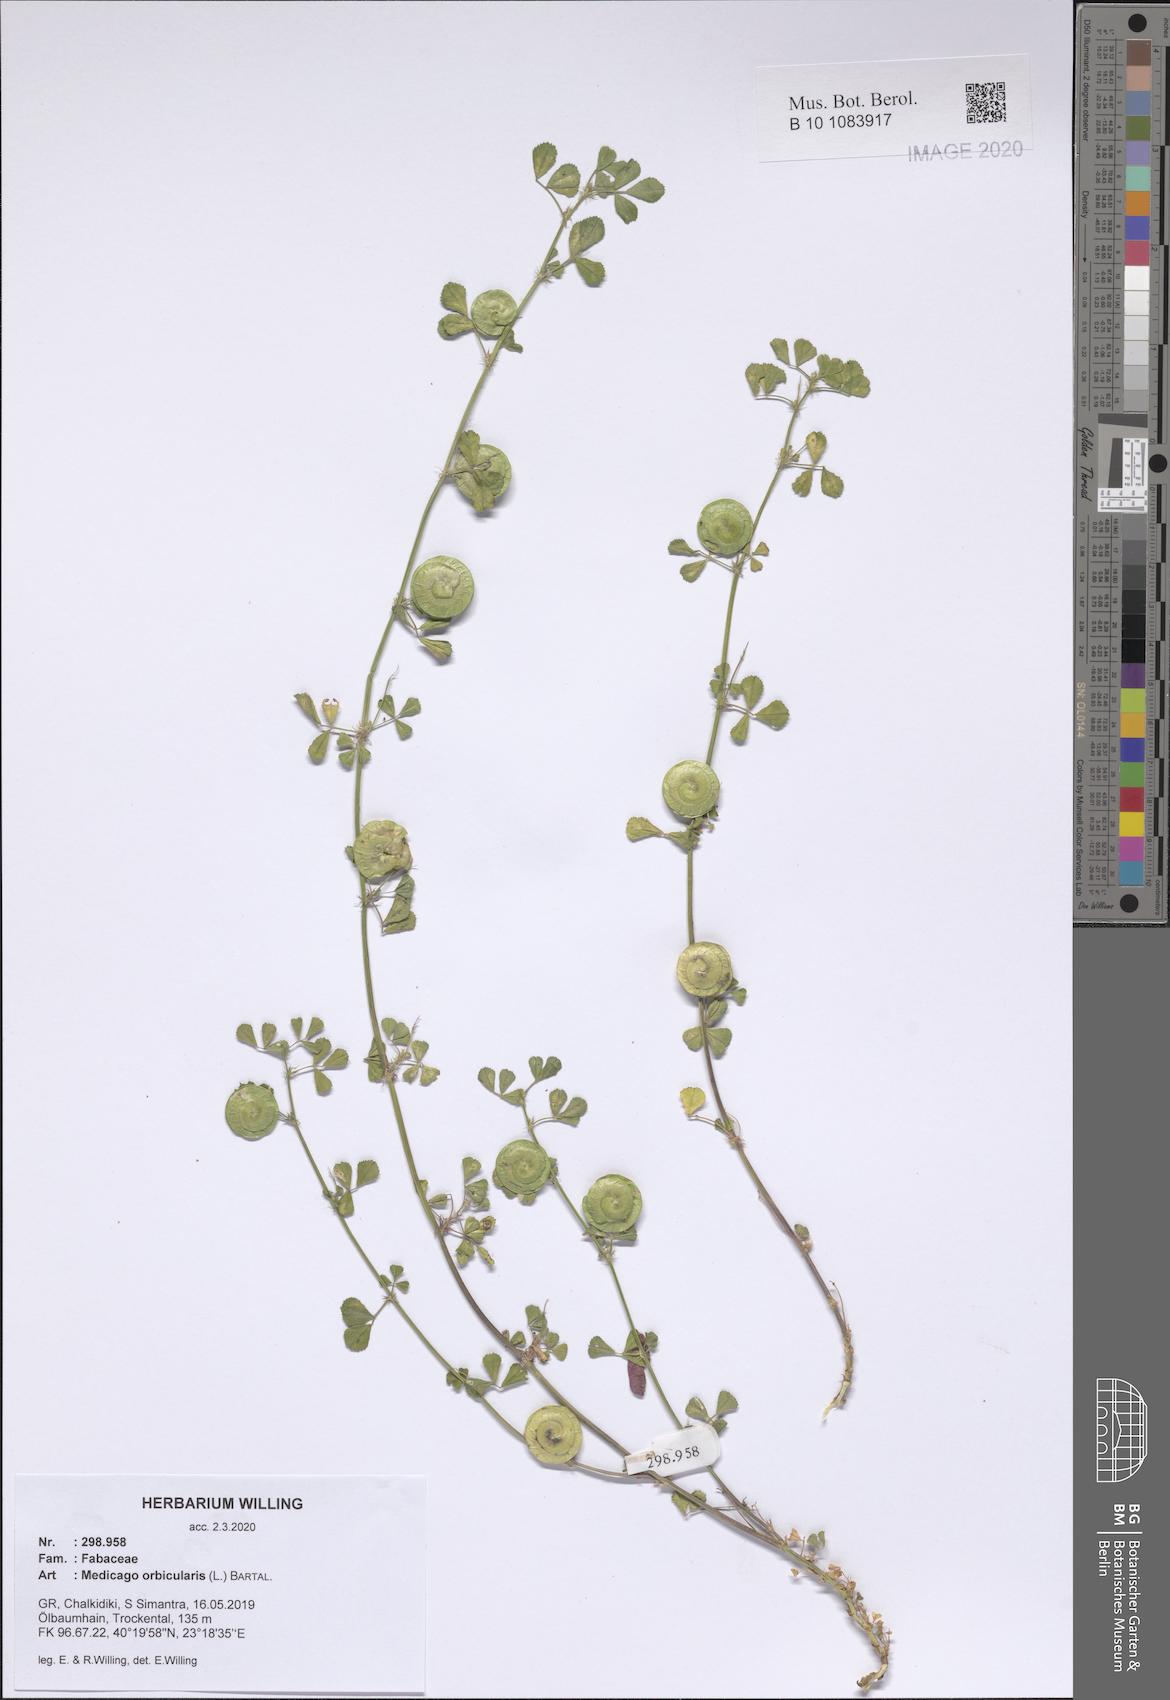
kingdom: Plantae
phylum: Tracheophyta
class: Magnoliopsida
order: Fabales
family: Fabaceae
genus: Medicago
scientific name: Medicago orbicularis
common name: Button medick
